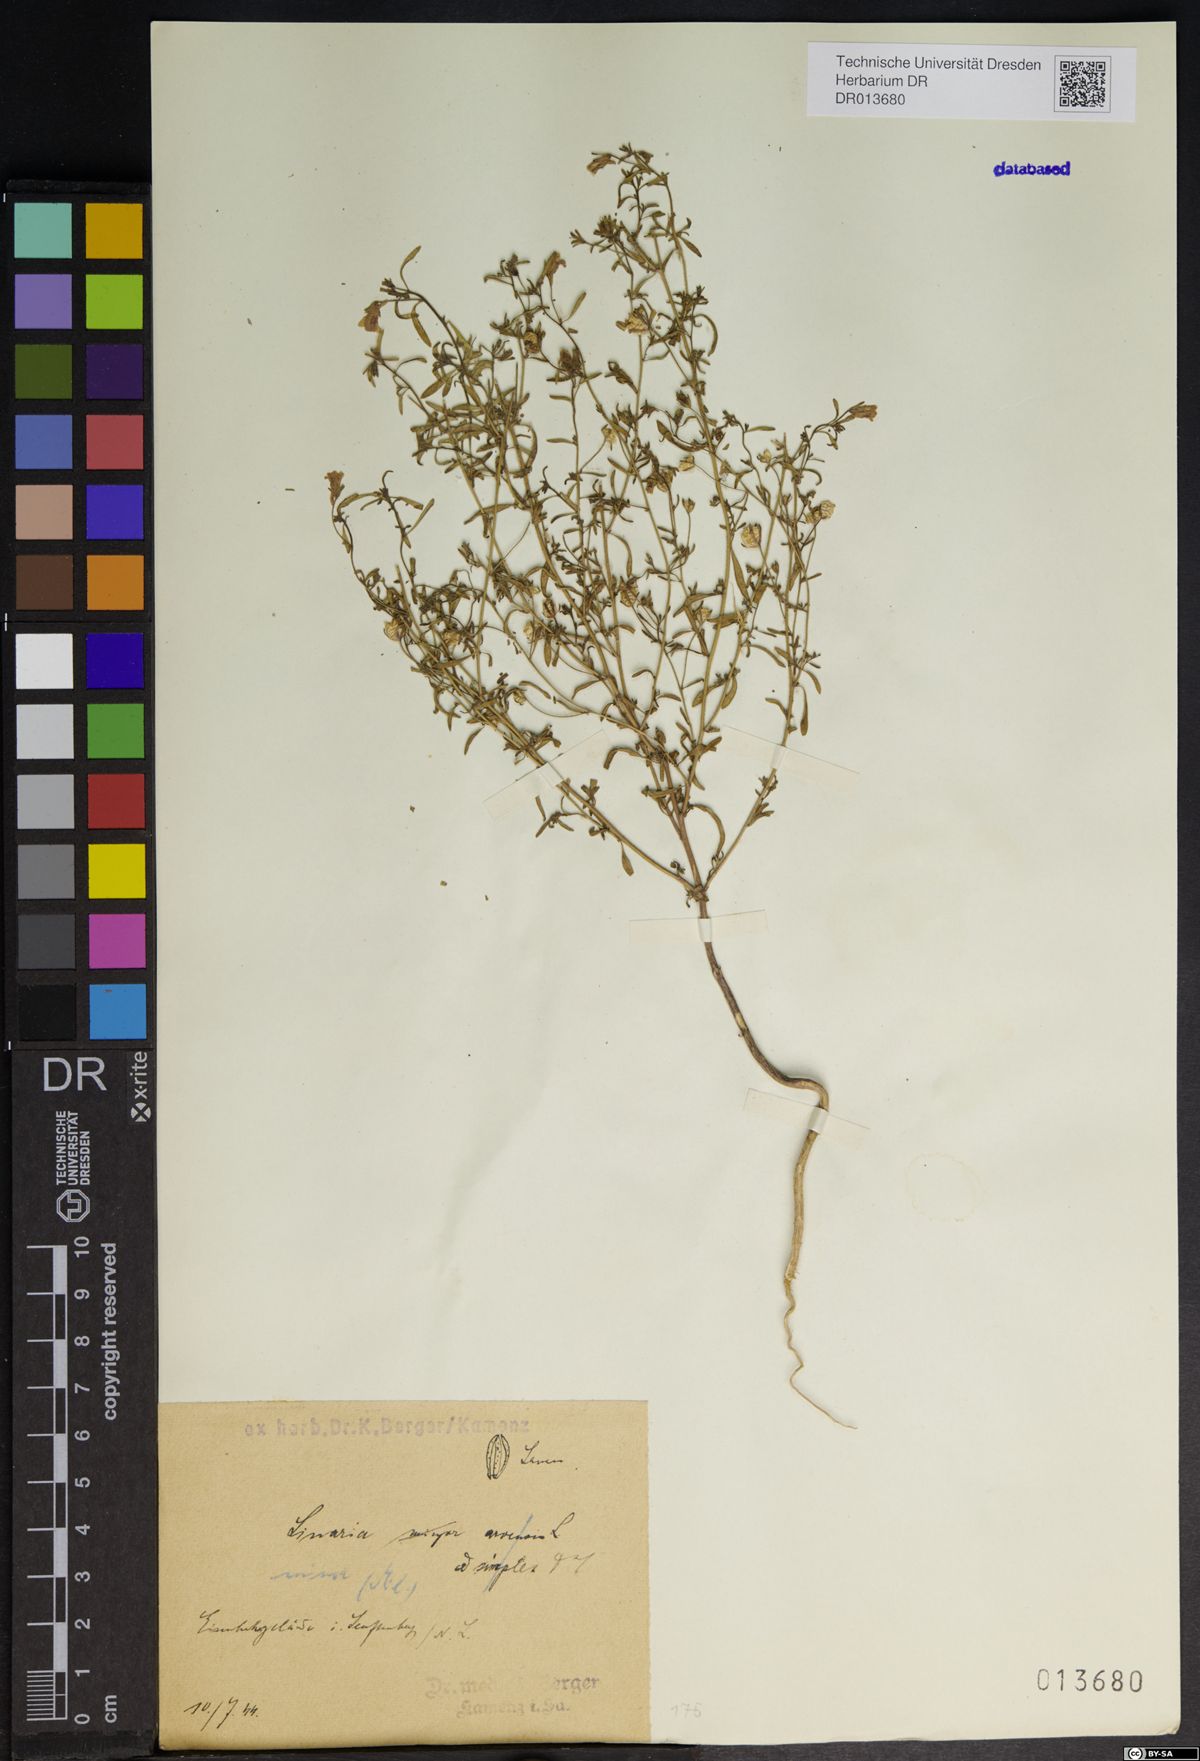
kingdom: Plantae
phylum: Tracheophyta
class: Magnoliopsida
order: Lamiales
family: Plantaginaceae
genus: Chaenorhinum
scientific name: Chaenorhinum minus
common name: Dwarf snapdragon
